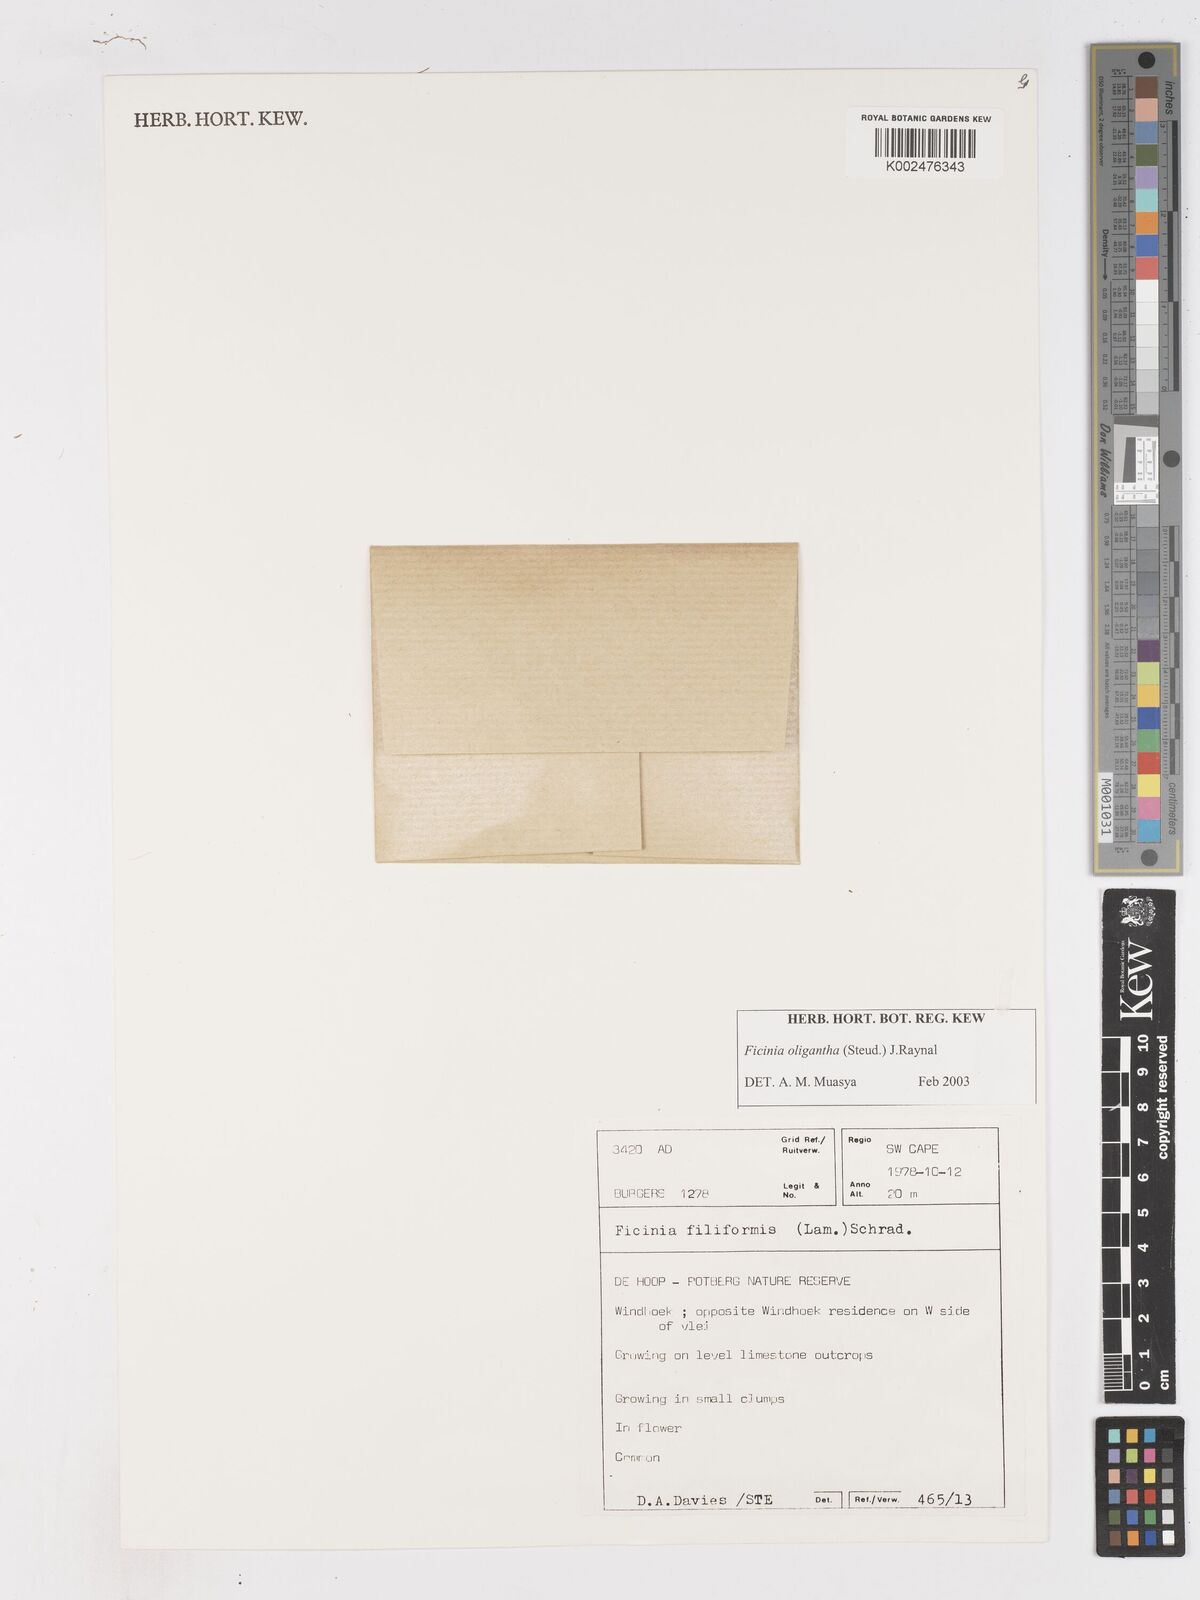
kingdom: Plantae
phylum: Tracheophyta
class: Liliopsida
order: Poales
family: Cyperaceae
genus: Ficinia
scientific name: Ficinia oligantha
